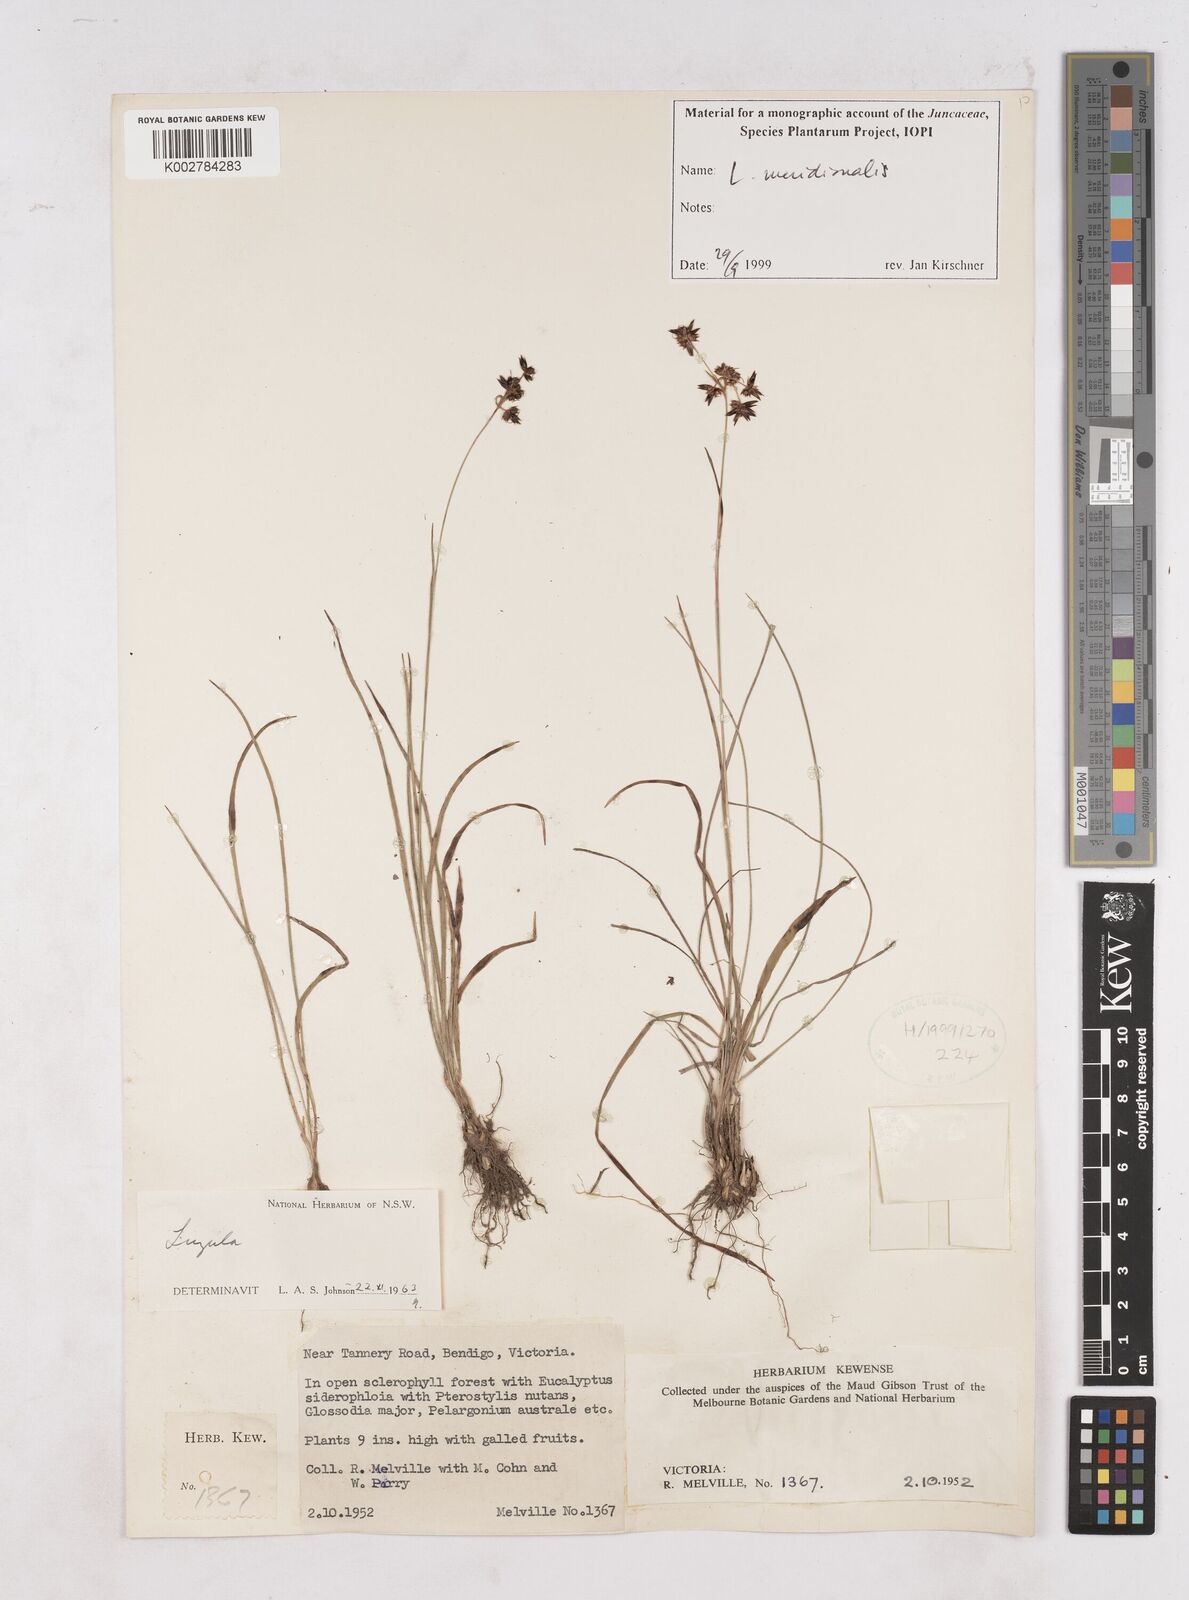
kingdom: Plantae
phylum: Tracheophyta
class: Liliopsida
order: Poales
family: Juncaceae
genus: Luzula
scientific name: Luzula meridionalis
